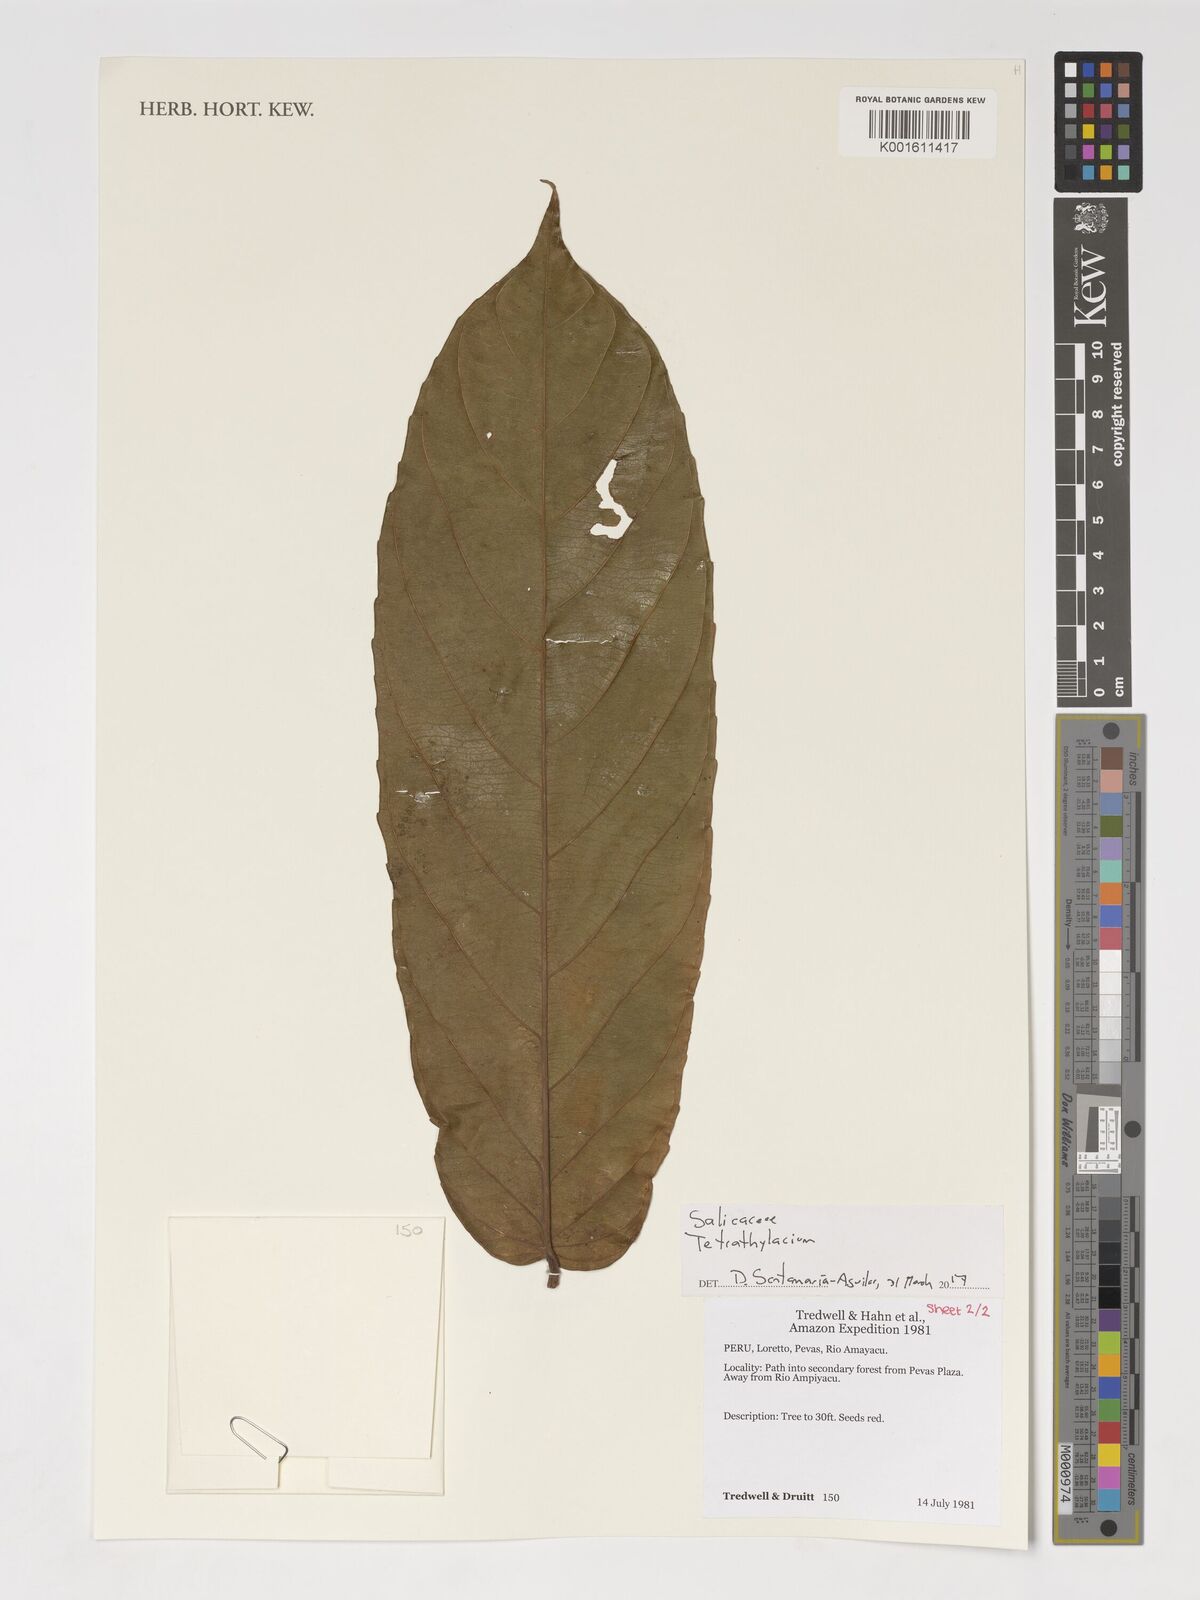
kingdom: Plantae
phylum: Tracheophyta
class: Magnoliopsida
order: Malpighiales
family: Salicaceae
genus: Tetrathylacium
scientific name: Tetrathylacium
